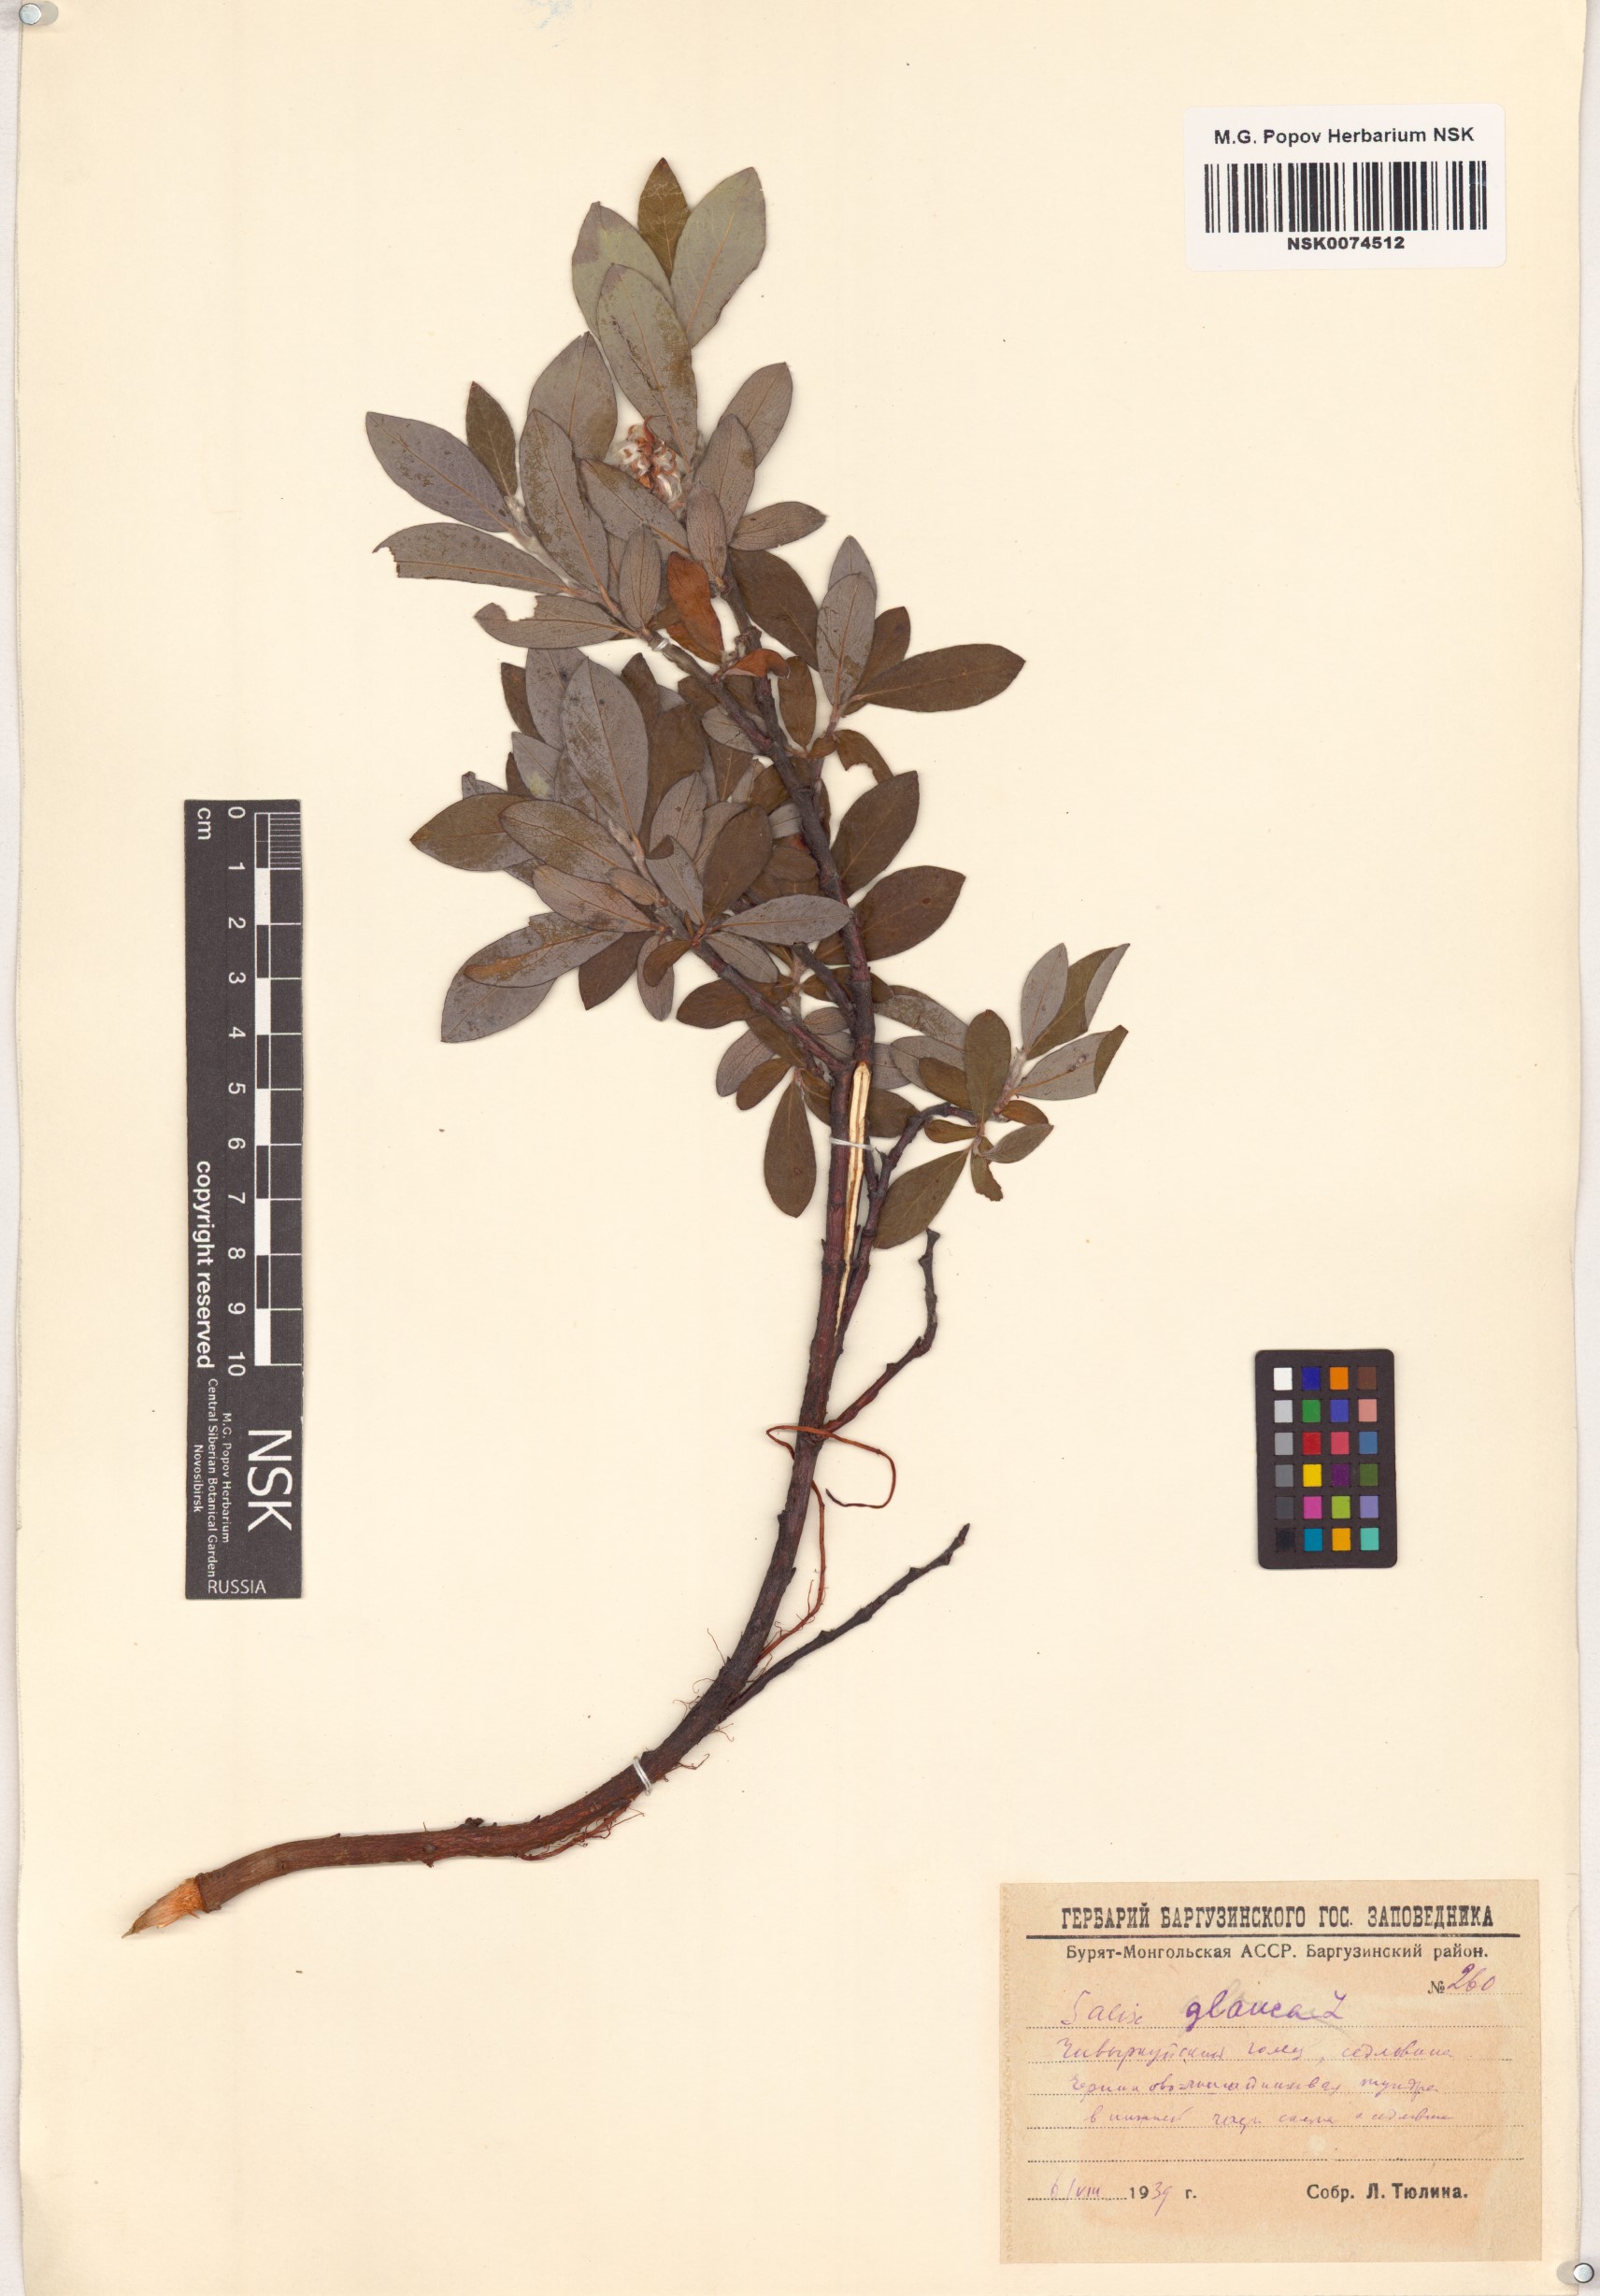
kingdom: Plantae
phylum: Tracheophyta
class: Magnoliopsida
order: Malpighiales
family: Salicaceae
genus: Salix
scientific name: Salix glauca
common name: Glaucous willow
